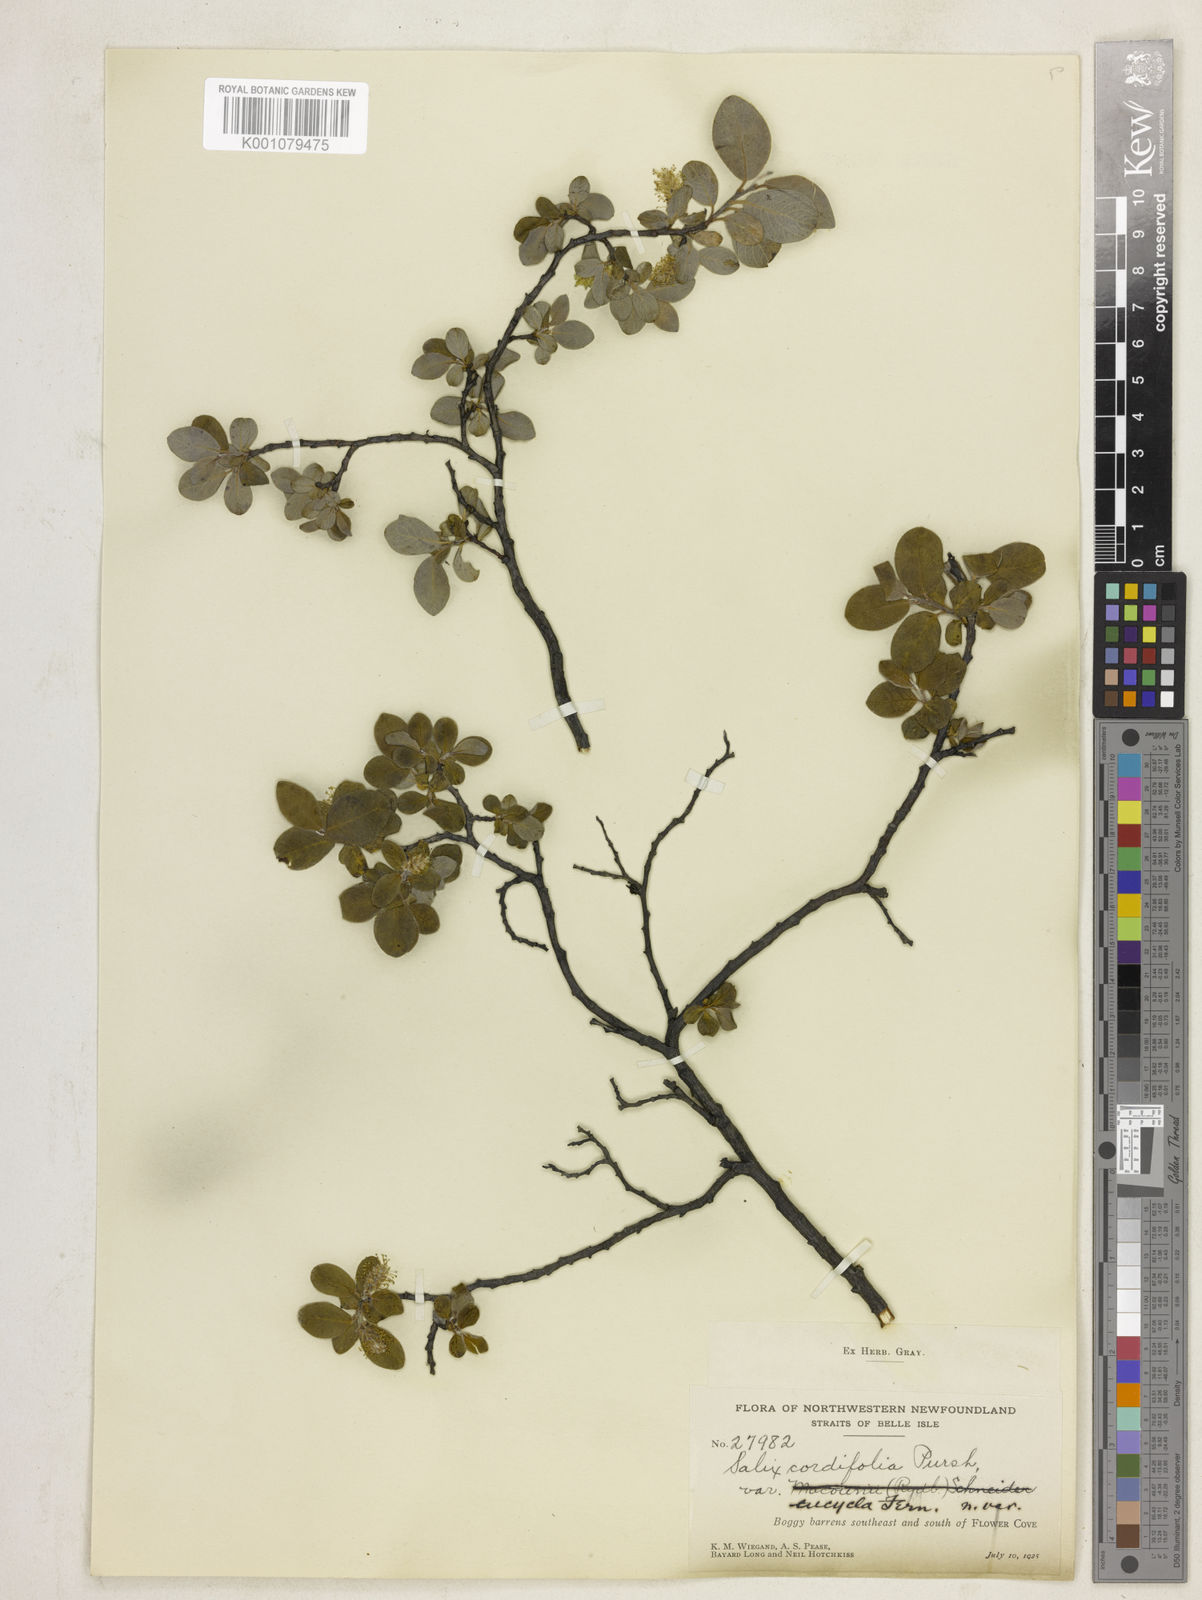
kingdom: Plantae
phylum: Tracheophyta
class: Magnoliopsida
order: Malpighiales
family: Salicaceae
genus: Salix
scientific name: Salix glauca
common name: Glaucous willow
